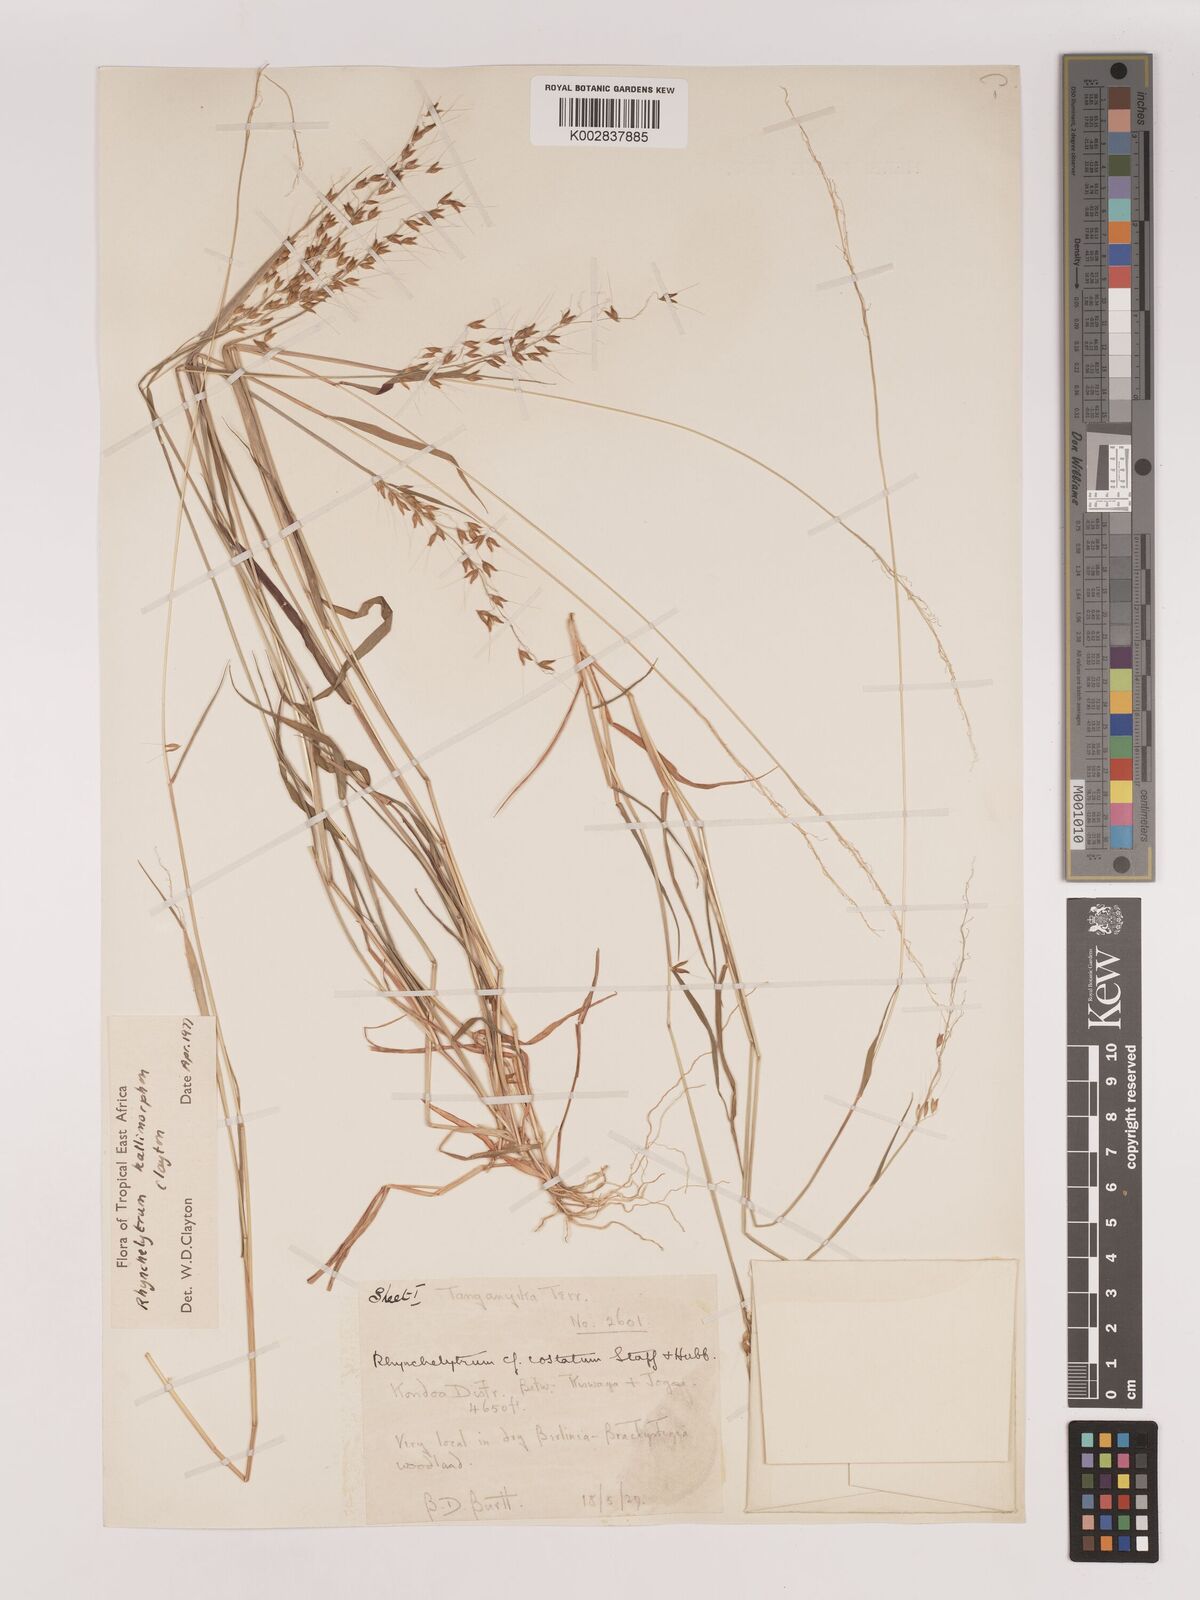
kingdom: Plantae
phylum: Tracheophyta
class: Liliopsida
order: Poales
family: Poaceae
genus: Melinis
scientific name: Melinis kallimorpha
